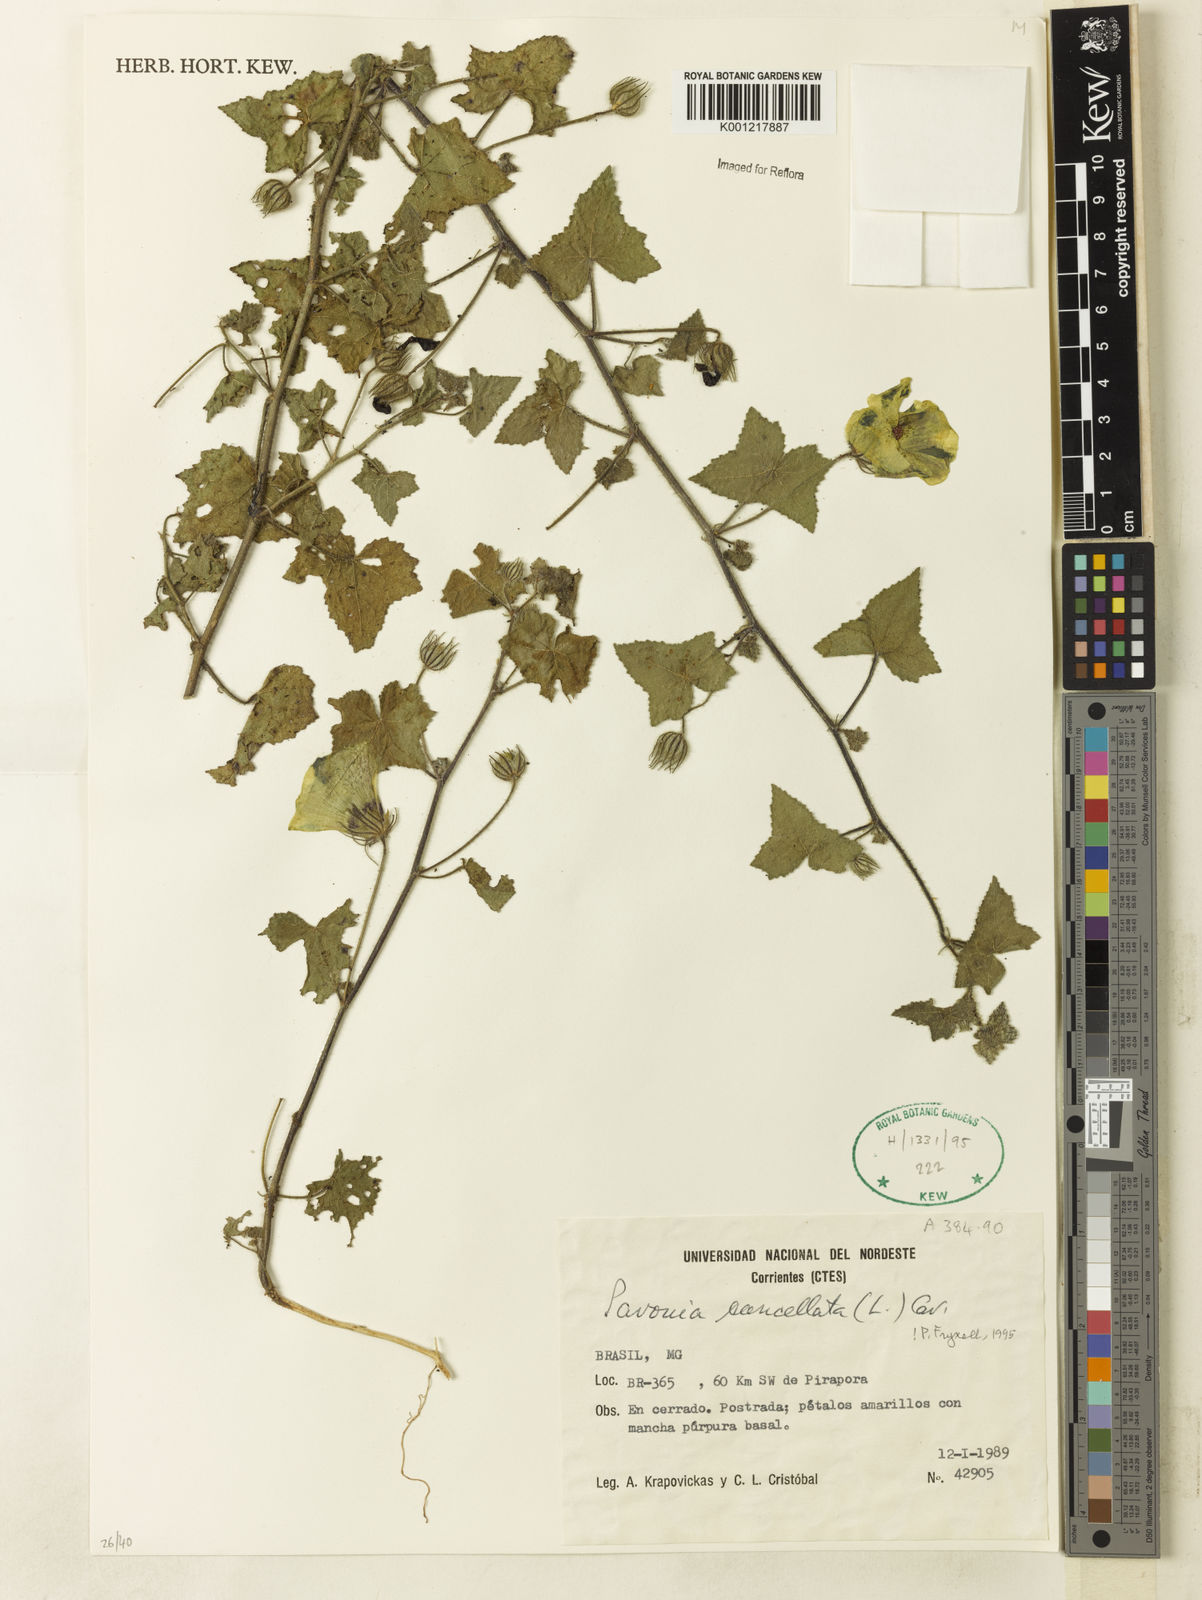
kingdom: Plantae
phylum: Tracheophyta
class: Magnoliopsida
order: Malvales
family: Malvaceae
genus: Pavonia
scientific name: Pavonia cancellata
